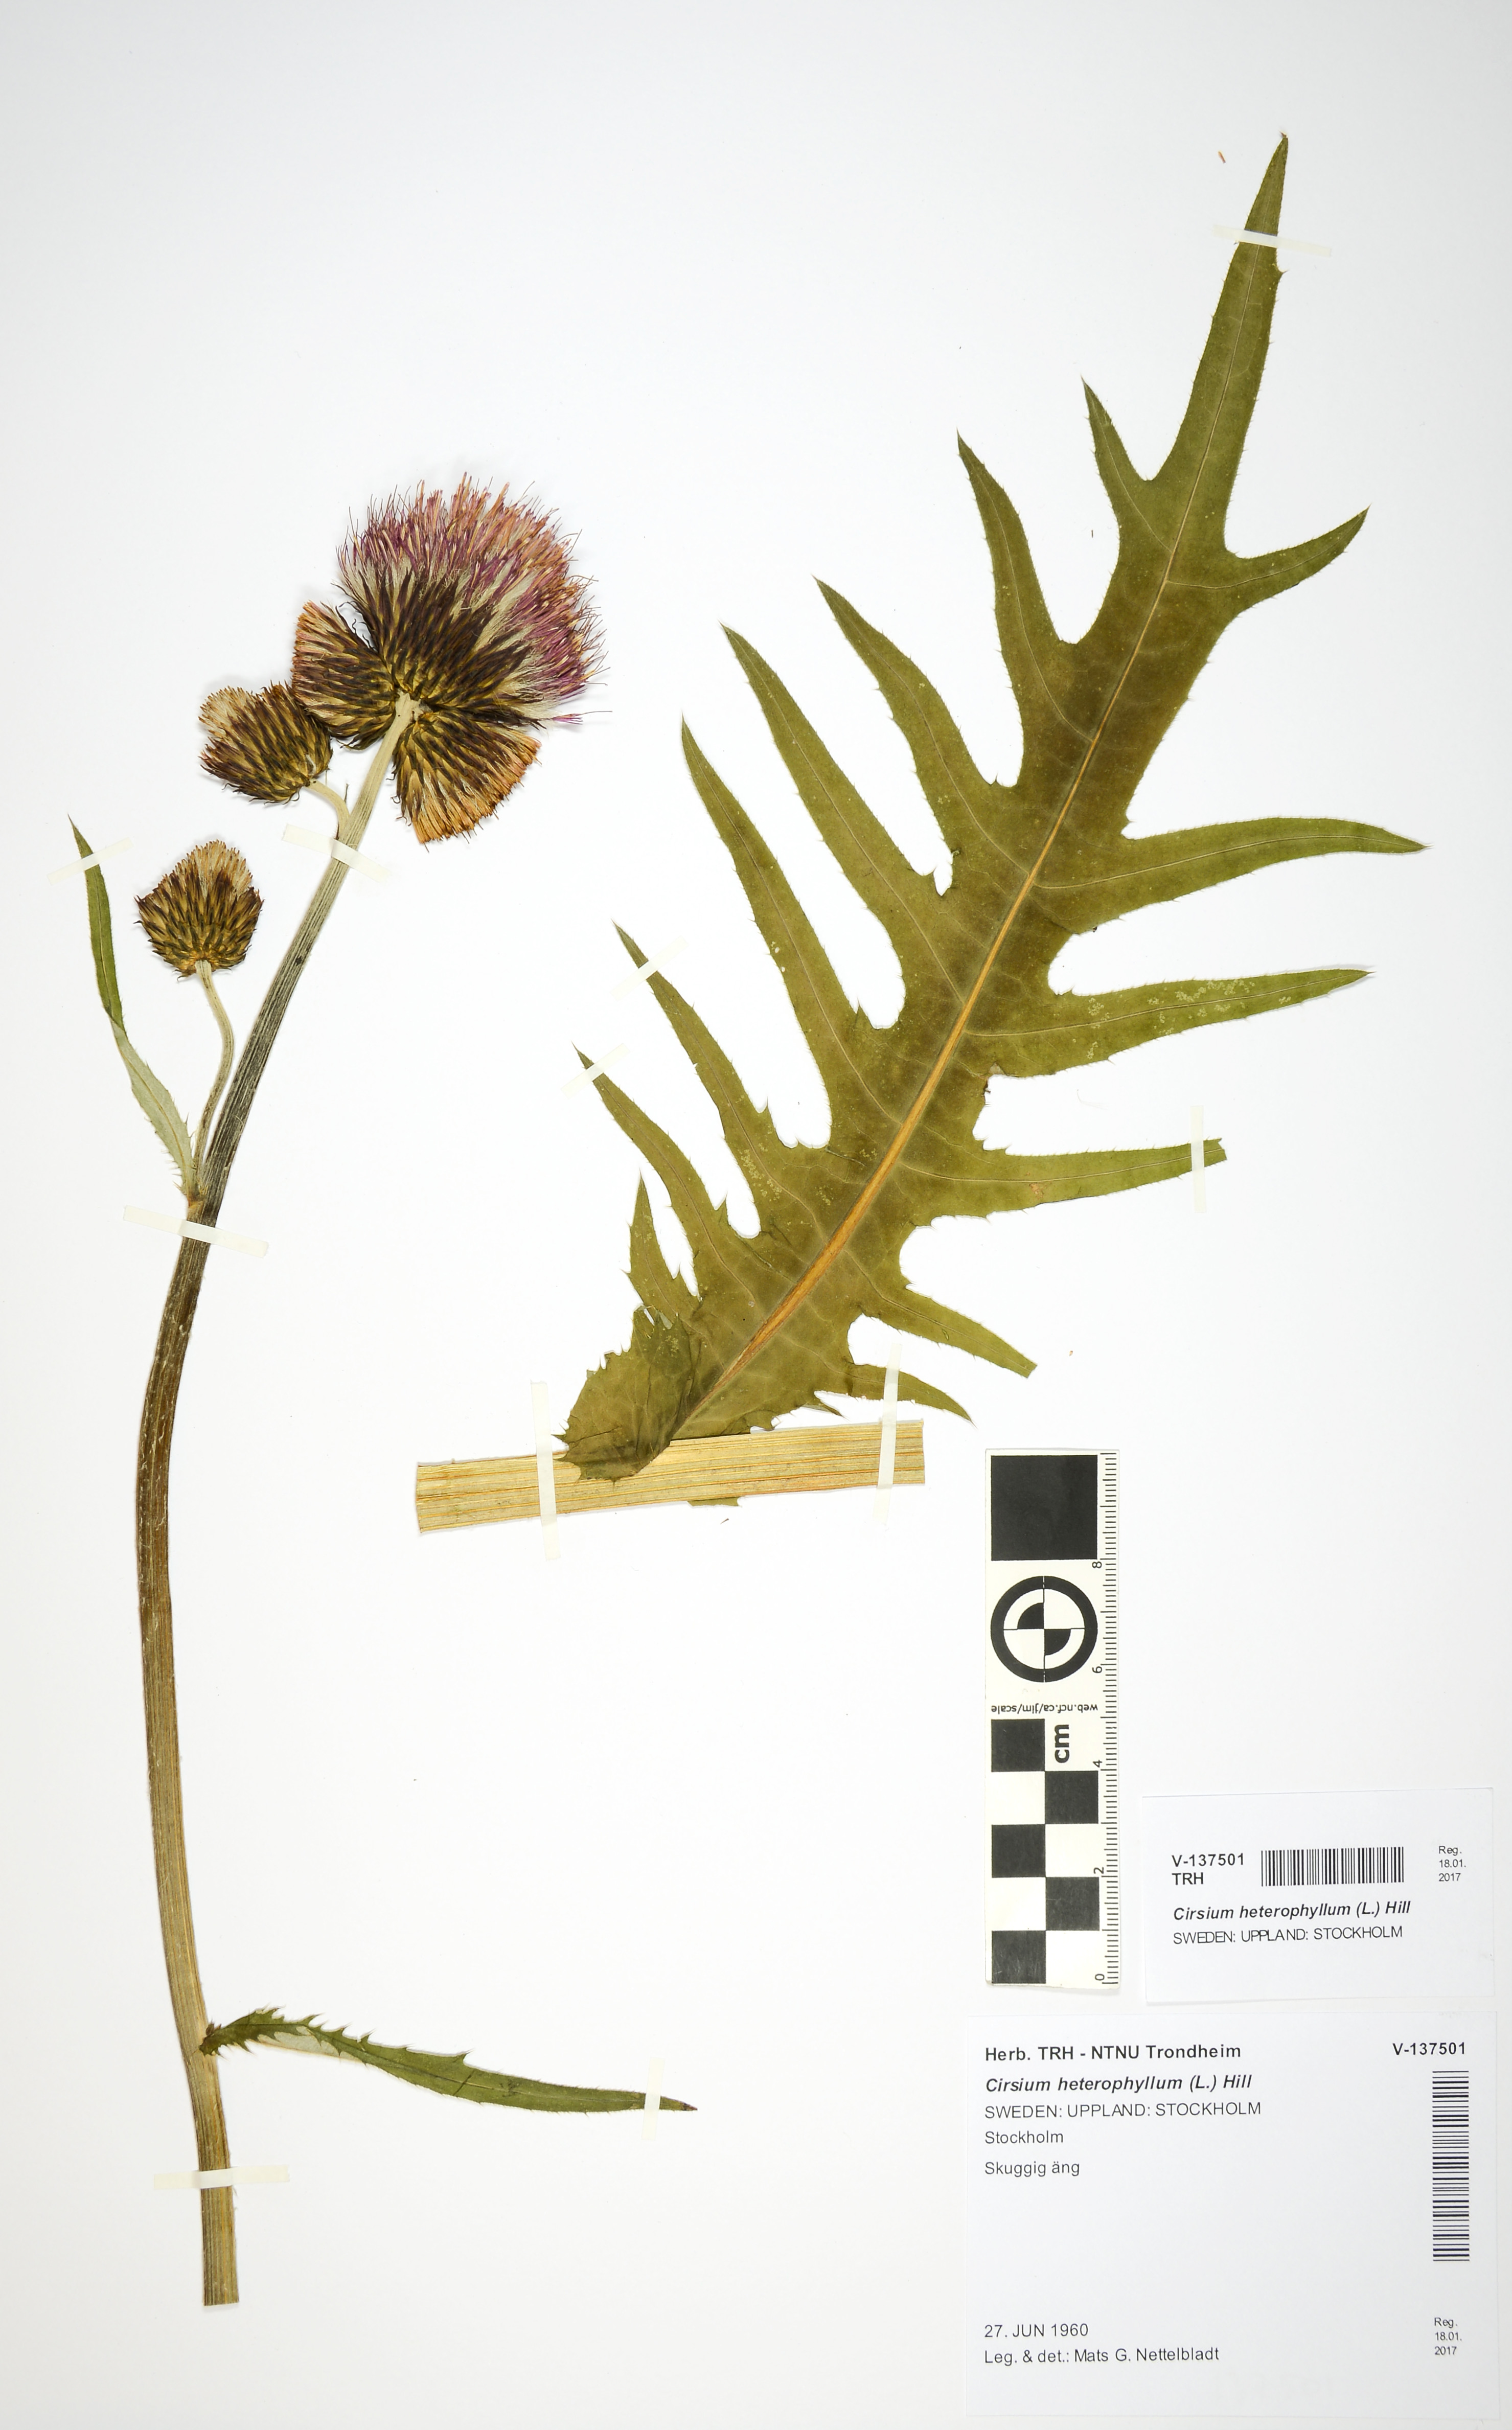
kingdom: Plantae
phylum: Tracheophyta
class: Magnoliopsida
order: Asterales
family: Asteraceae
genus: Cirsium
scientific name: Cirsium heterophyllum
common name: Melancholy thistle
